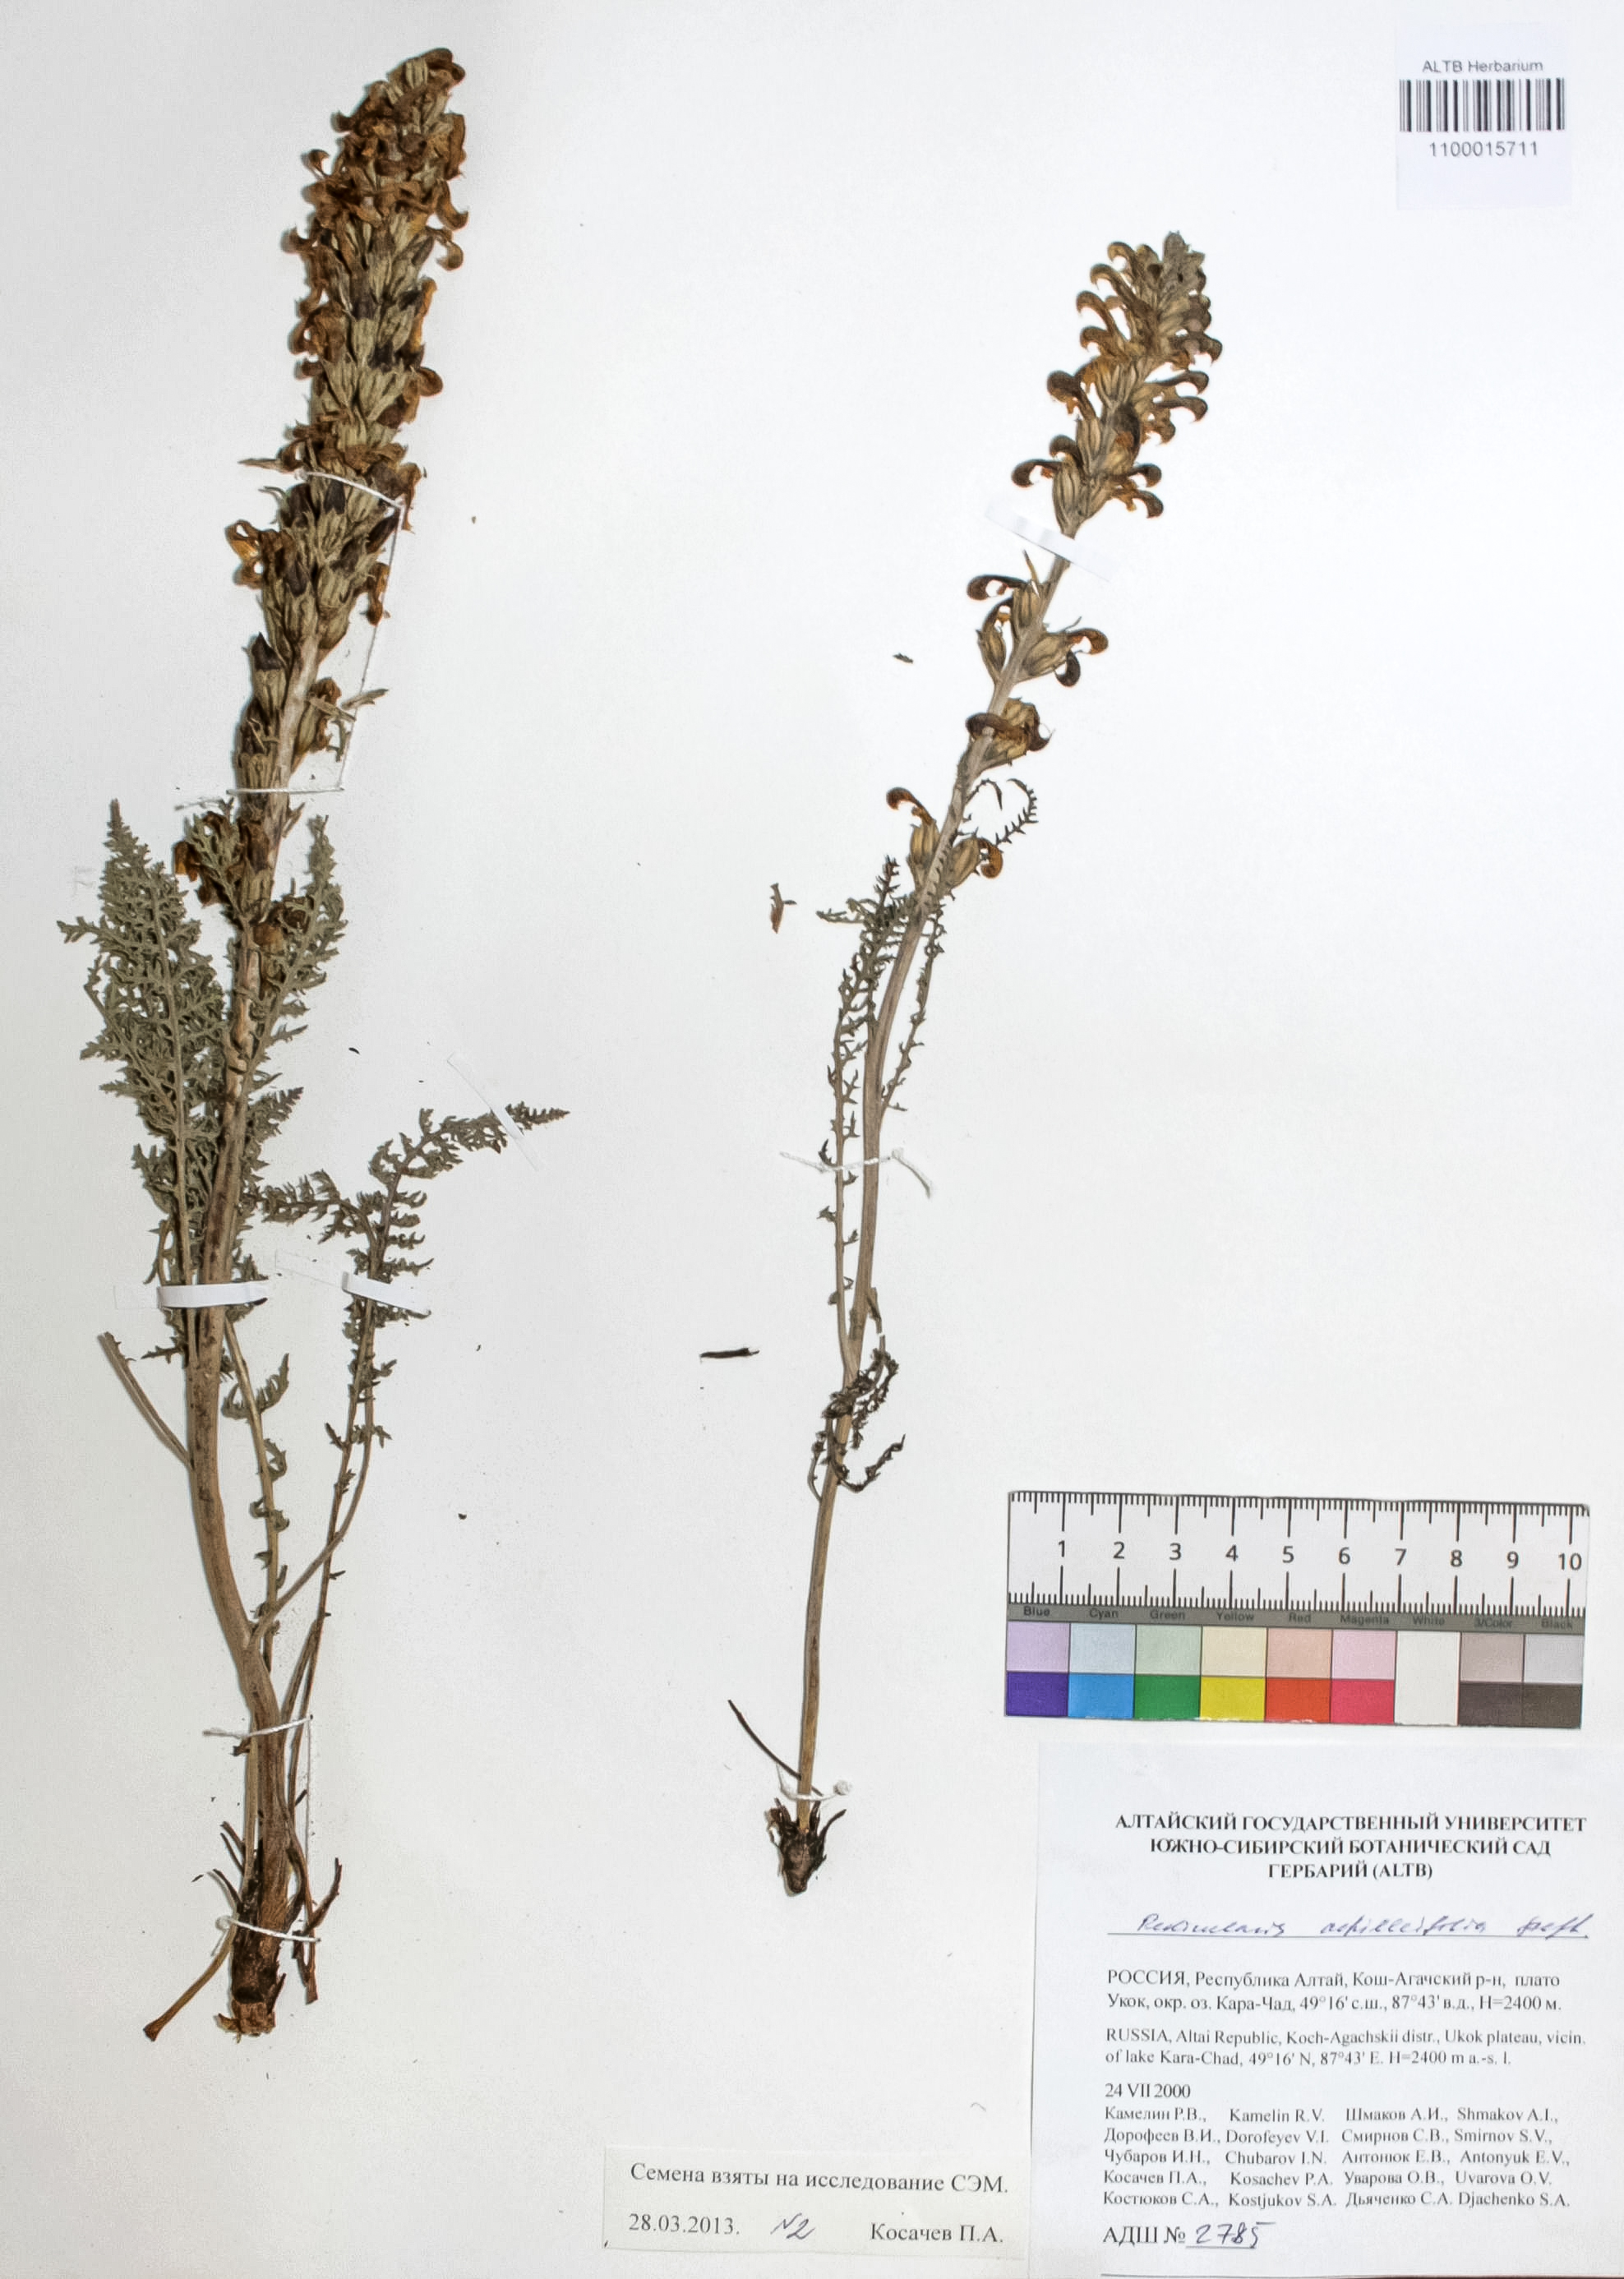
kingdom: Plantae
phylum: Tracheophyta
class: Magnoliopsida
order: Lamiales
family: Orobanchaceae
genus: Pedicularis
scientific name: Pedicularis achilleifolia
